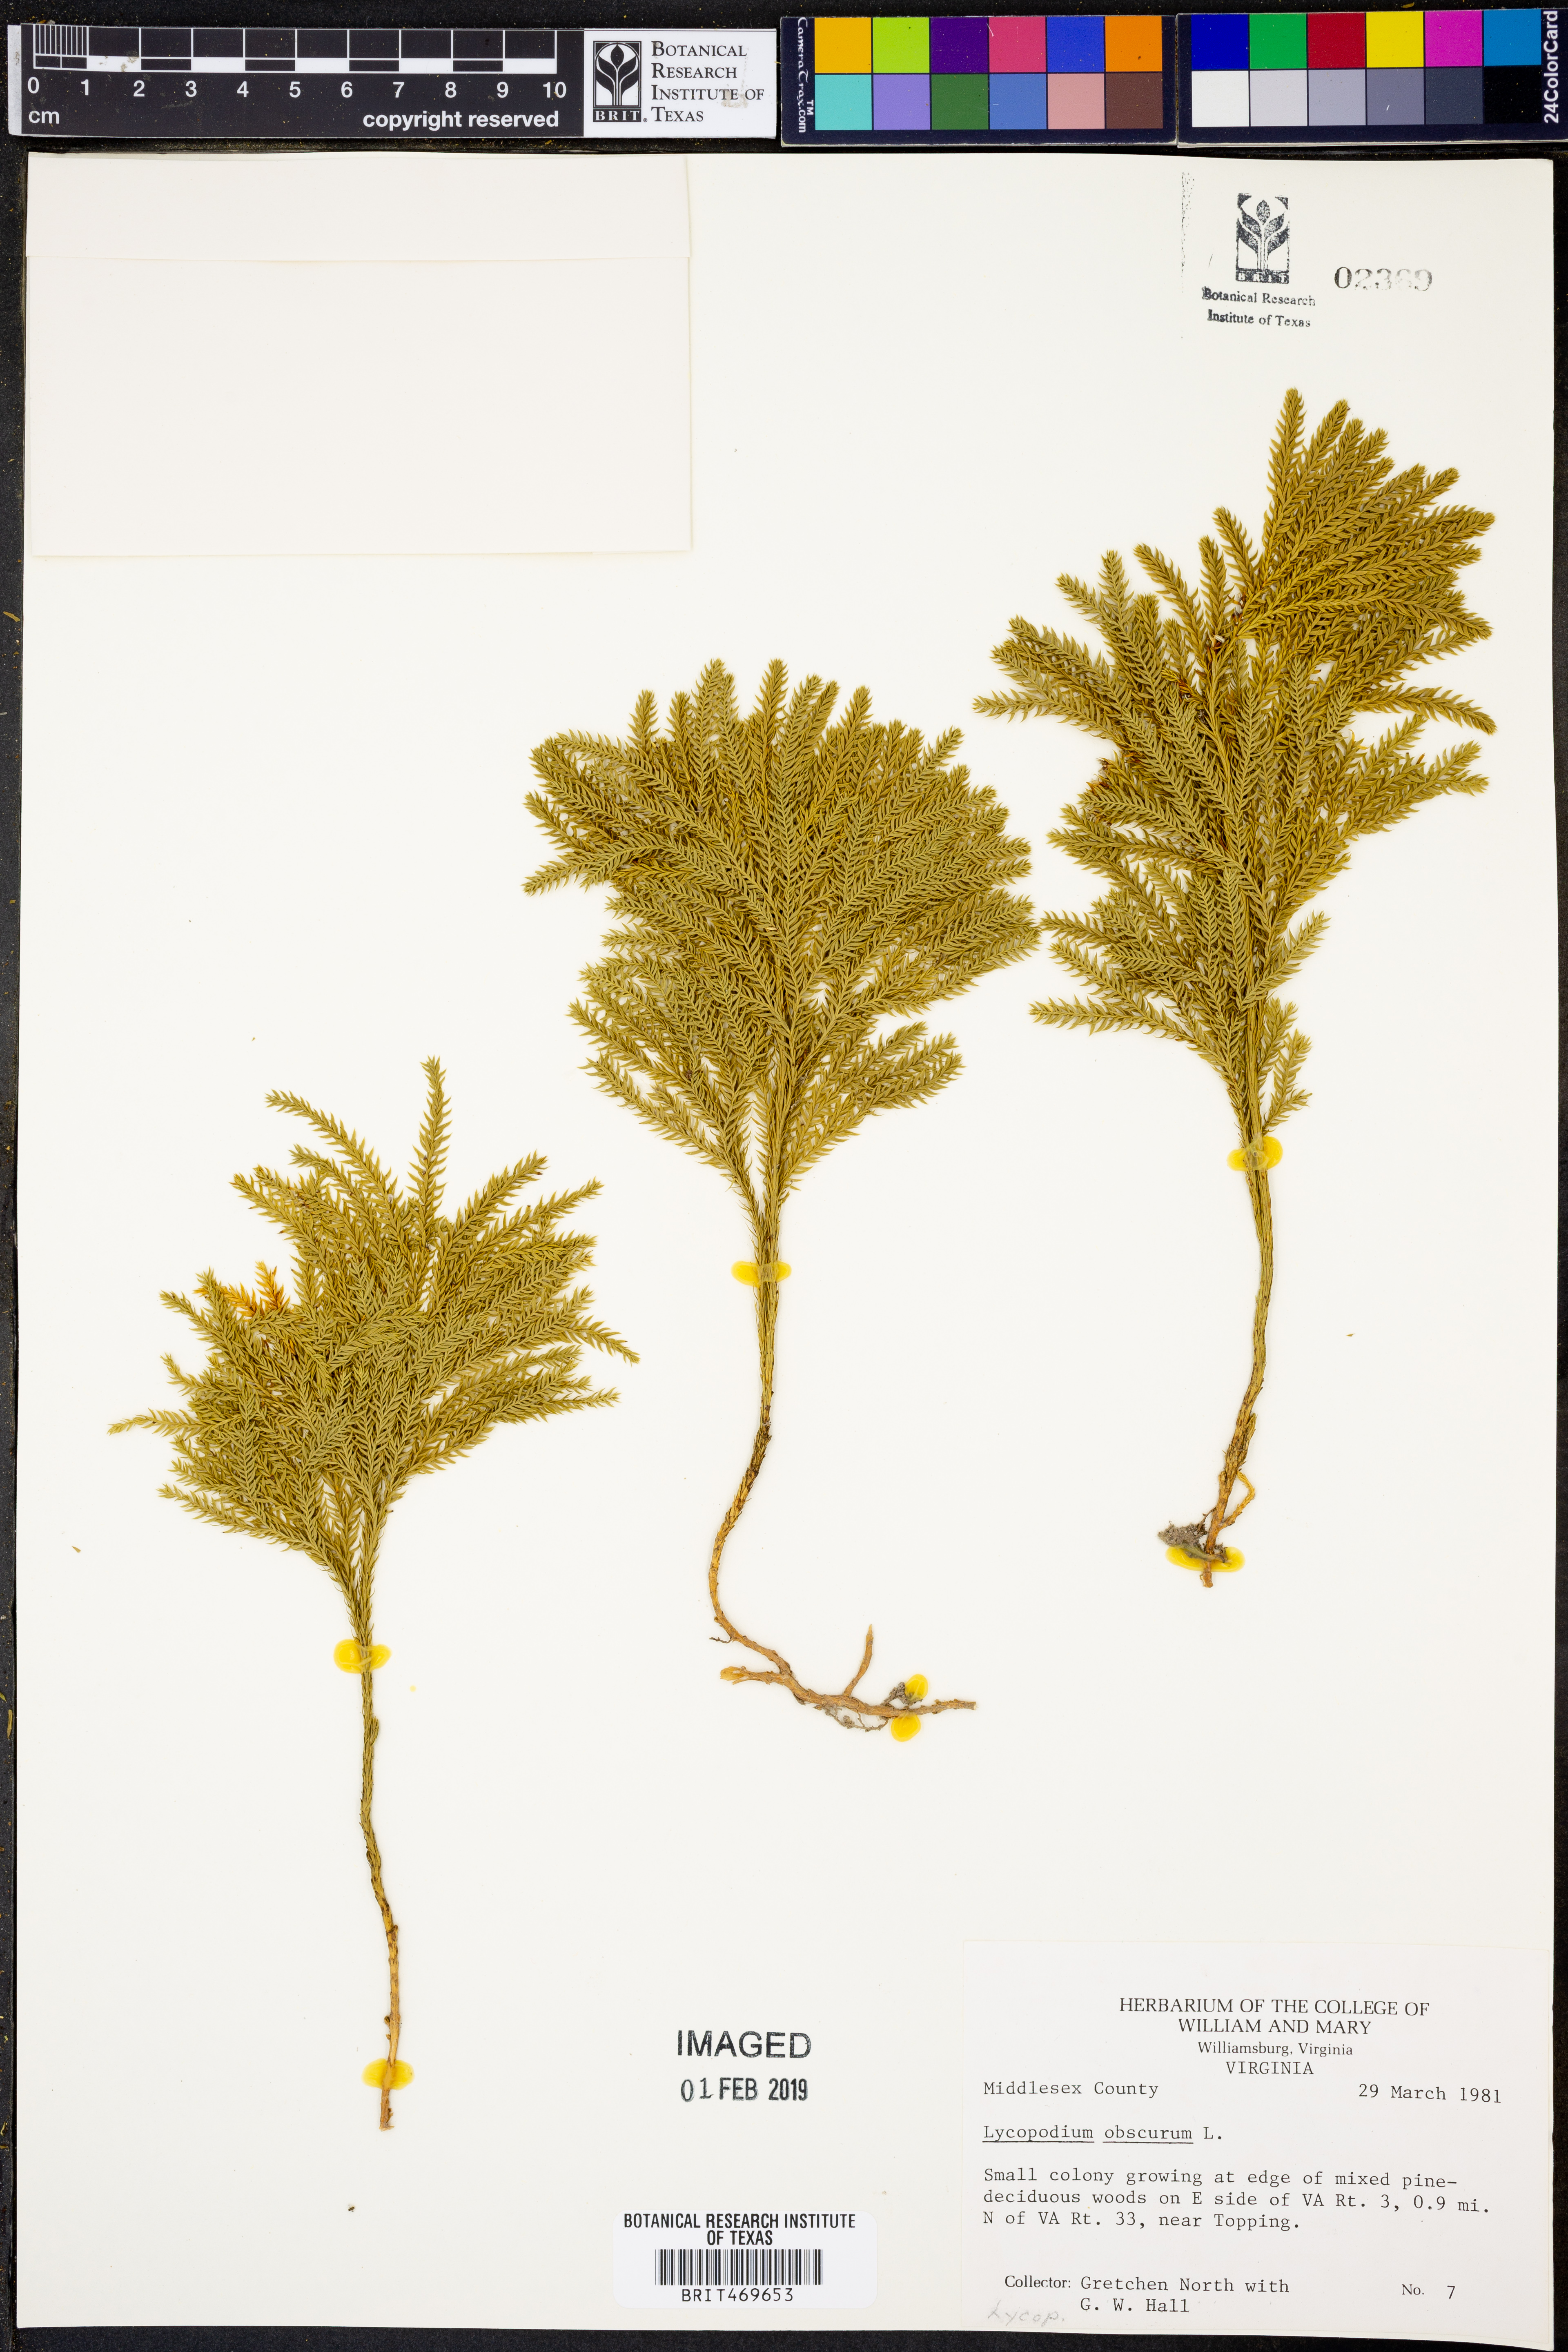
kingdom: Plantae
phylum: Tracheophyta
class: Lycopodiopsida
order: Lycopodiales
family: Lycopodiaceae
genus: Dendrolycopodium
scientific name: Dendrolycopodium obscurum
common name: Common ground-pine
